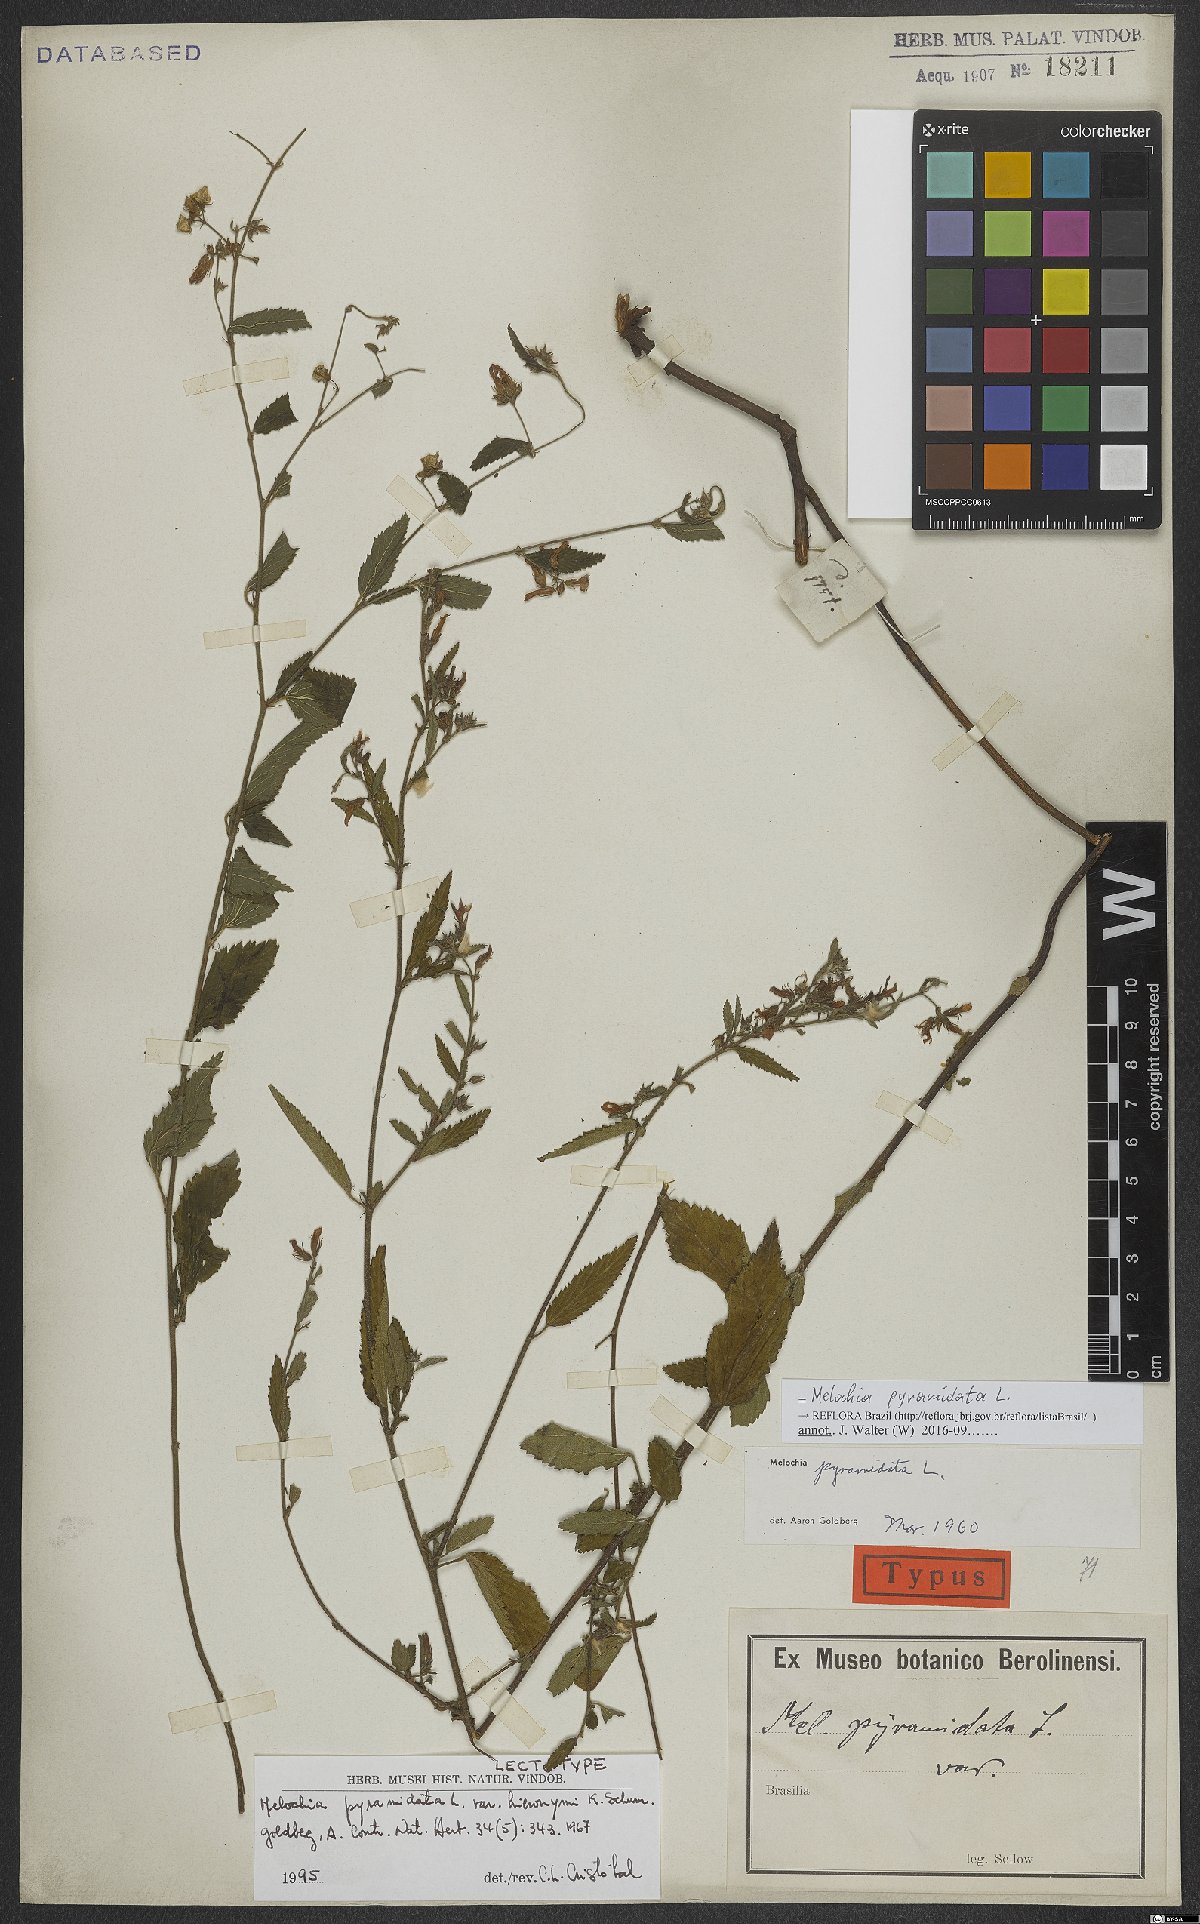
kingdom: Plantae
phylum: Tracheophyta
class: Magnoliopsida
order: Malvales
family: Malvaceae
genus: Melochia
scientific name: Melochia pyramidata
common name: Pyramidflower
